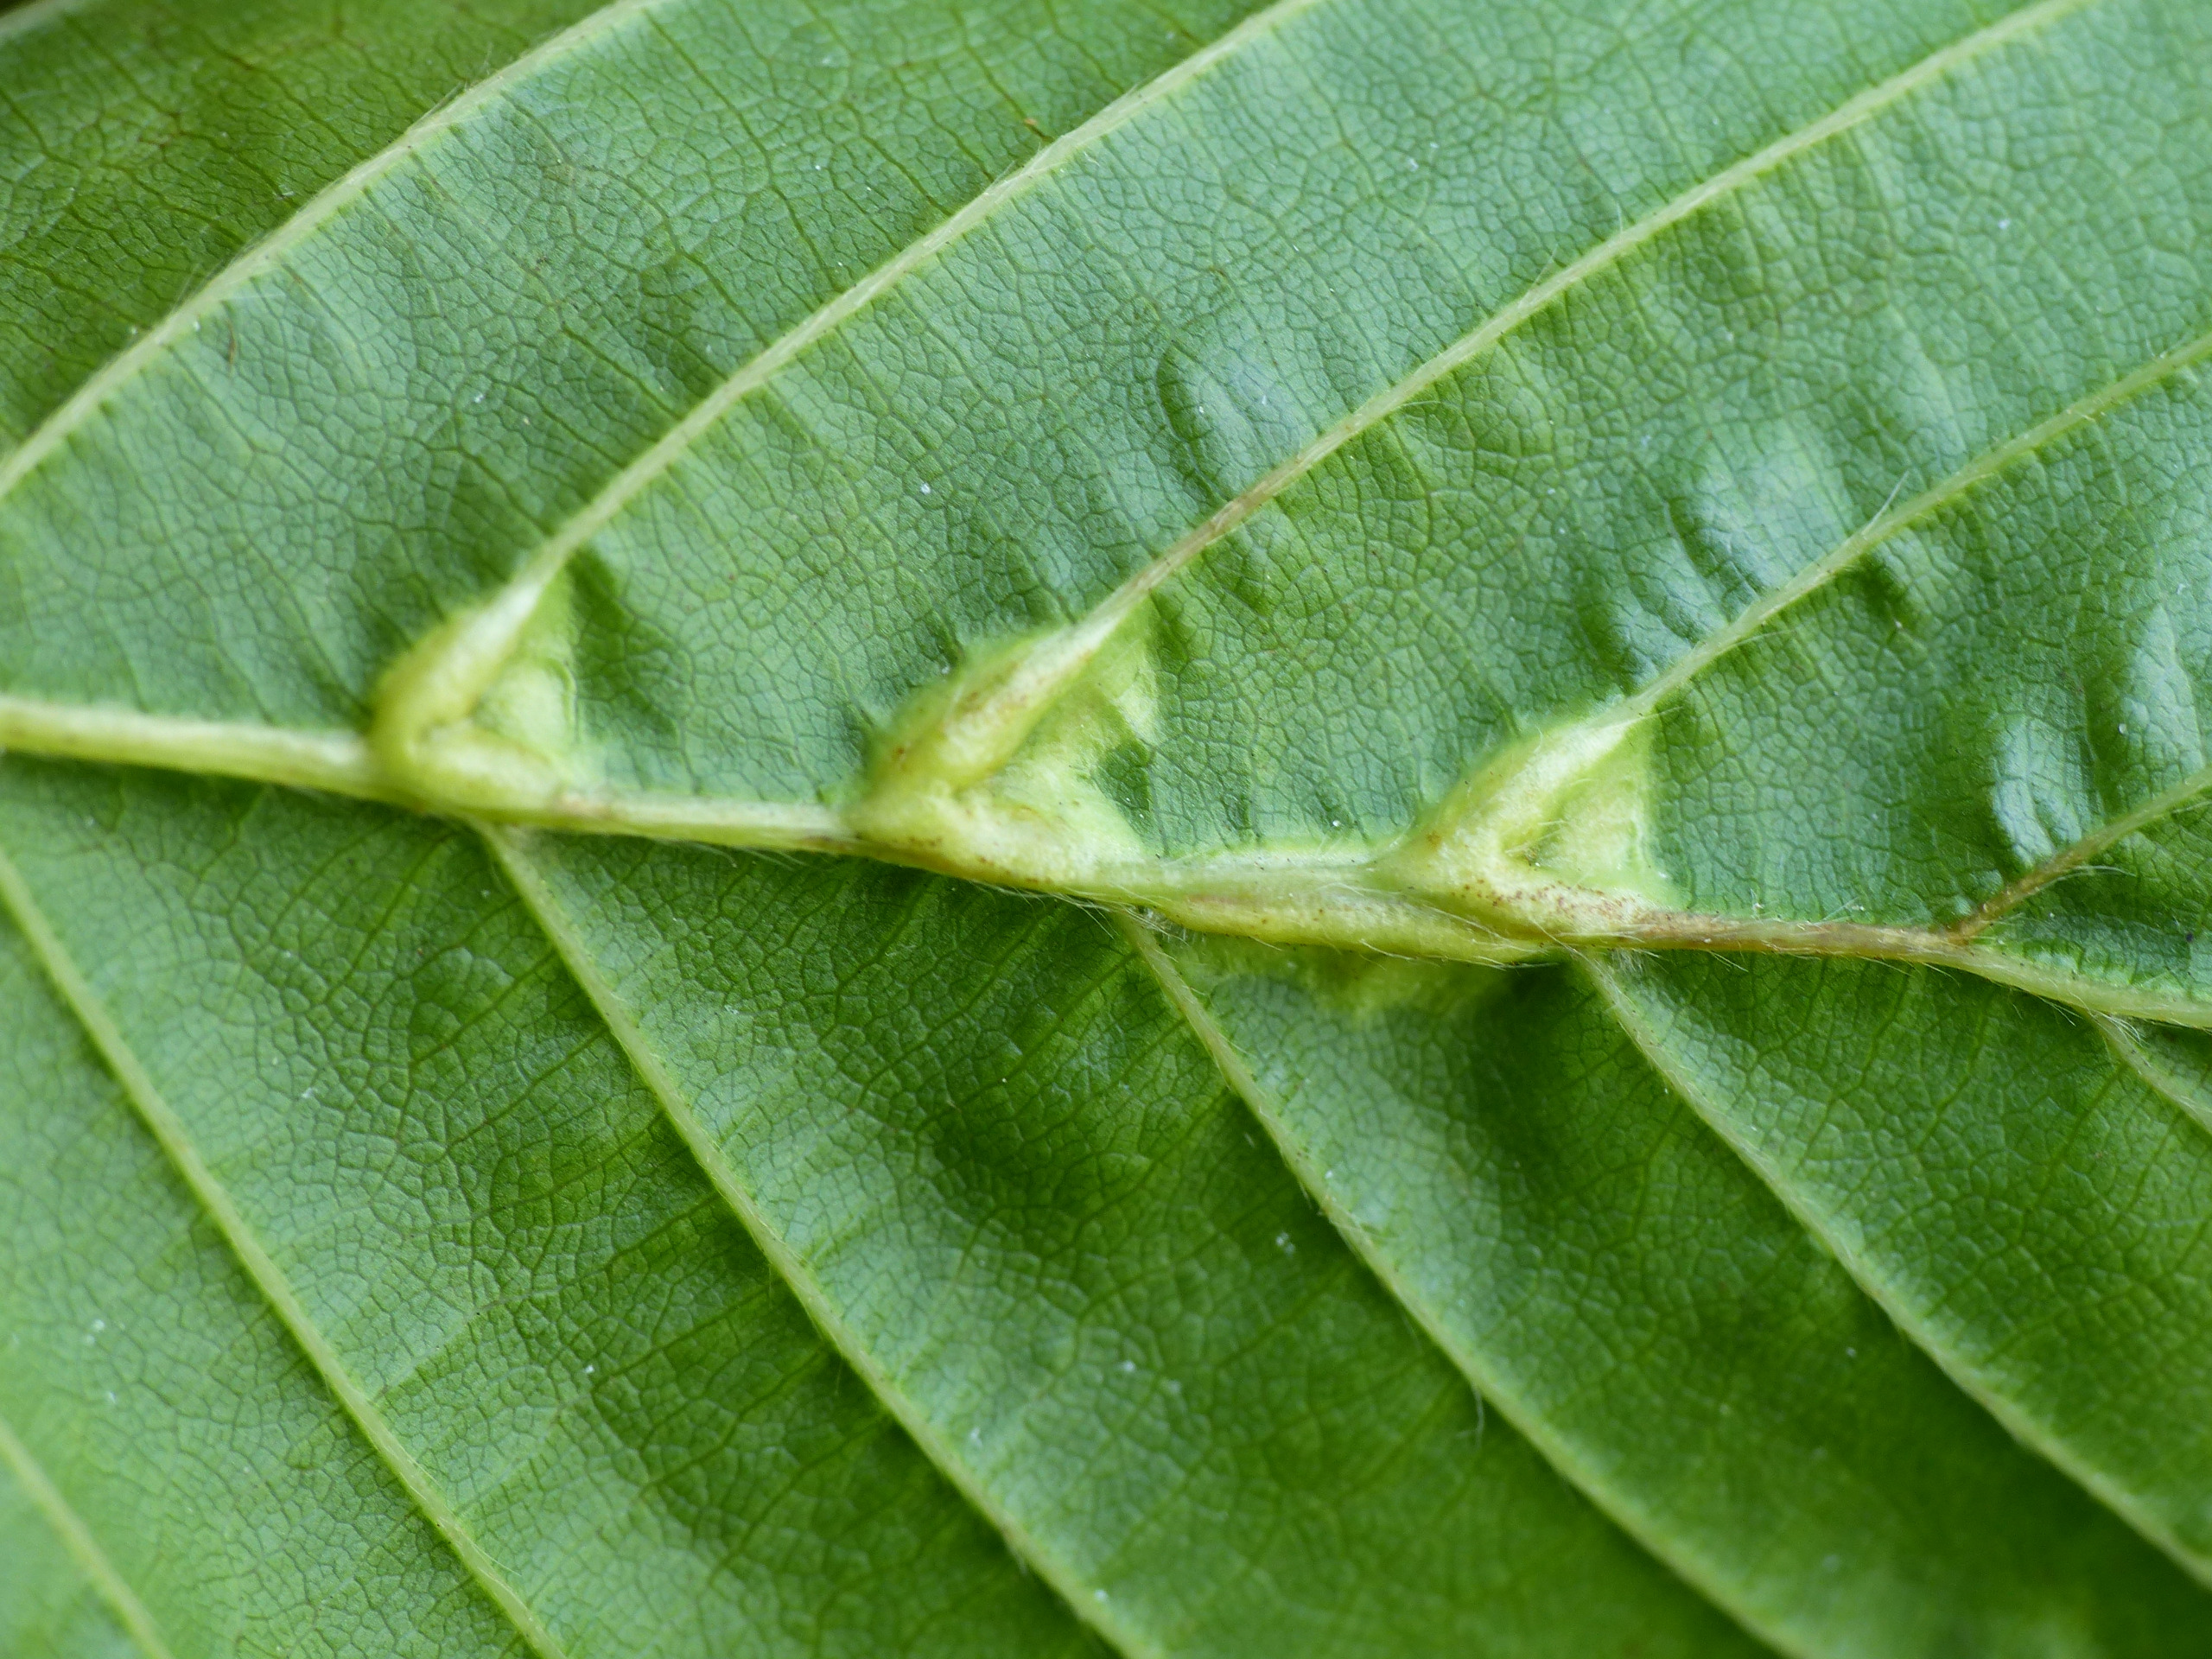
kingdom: Animalia
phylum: Arthropoda
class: Insecta
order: Diptera
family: Cecidomyiidae
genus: Zygiobia
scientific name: Zygiobia carpini
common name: Avnbøggalmyg
